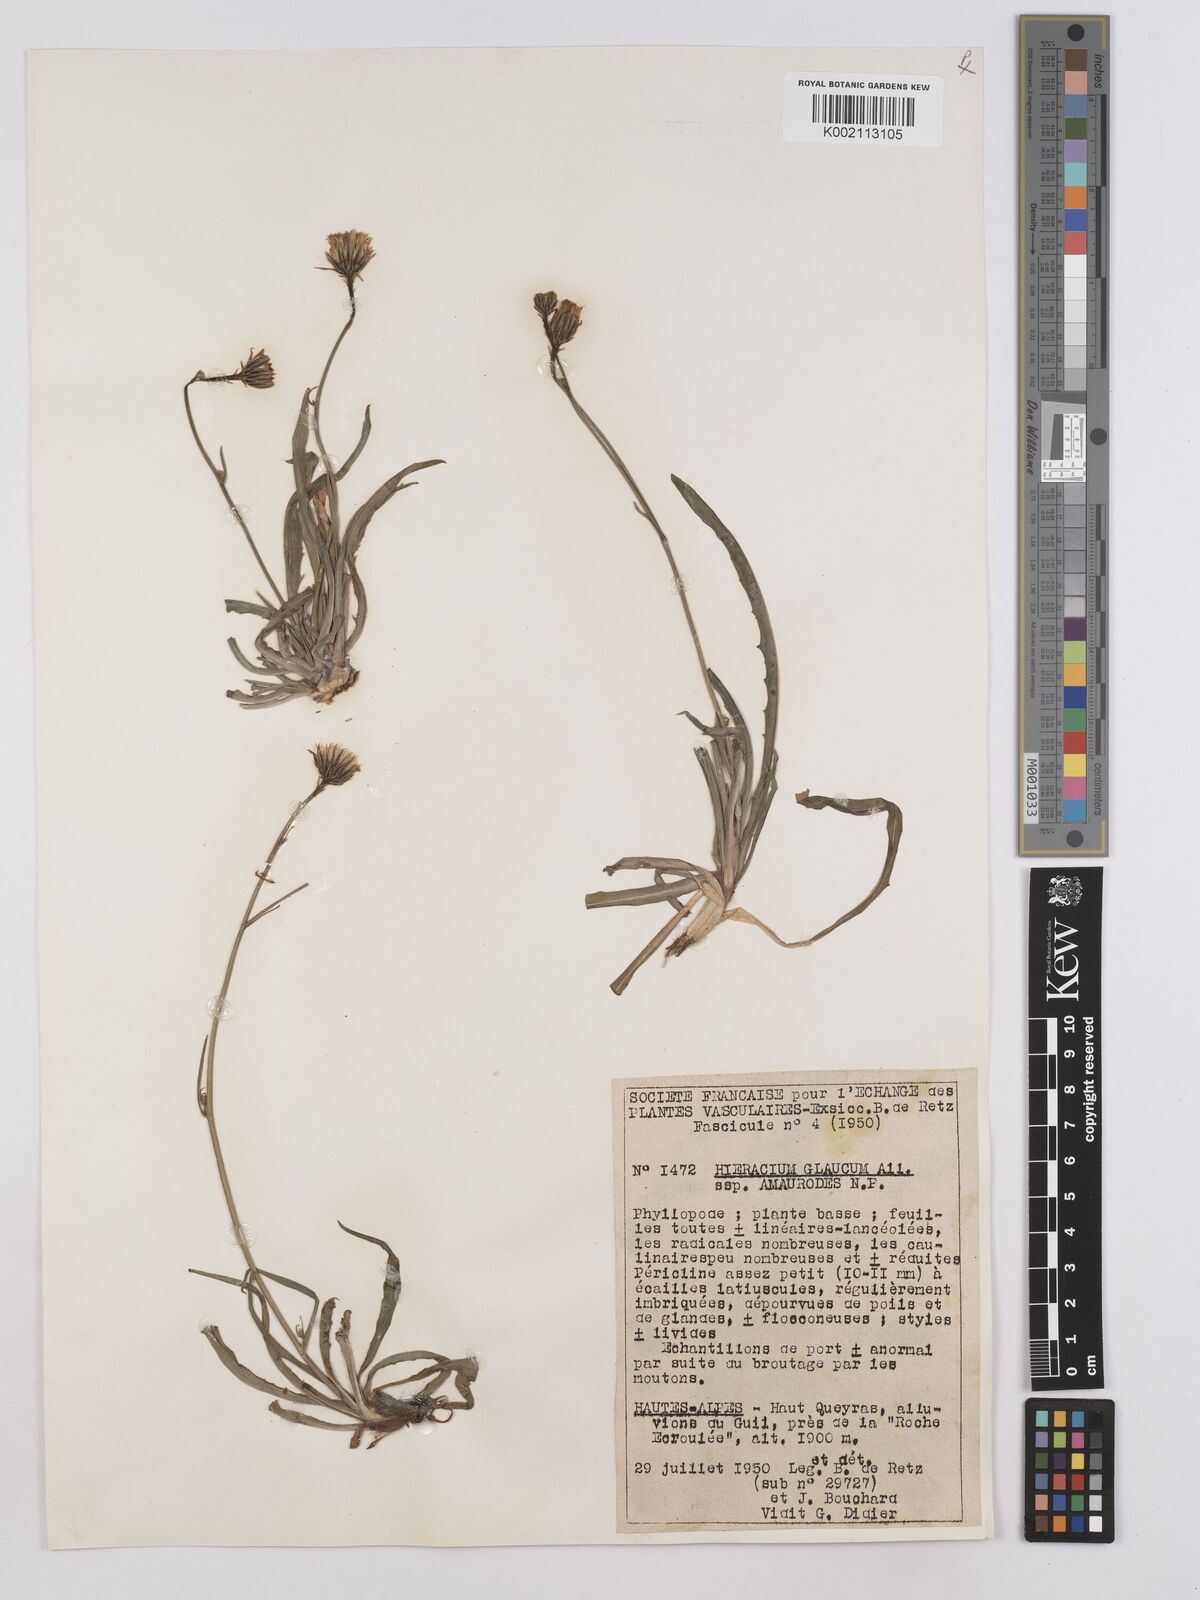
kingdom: Plantae
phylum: Tracheophyta
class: Magnoliopsida
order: Asterales
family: Asteraceae
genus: Hieracium
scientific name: Hieracium glaucum
